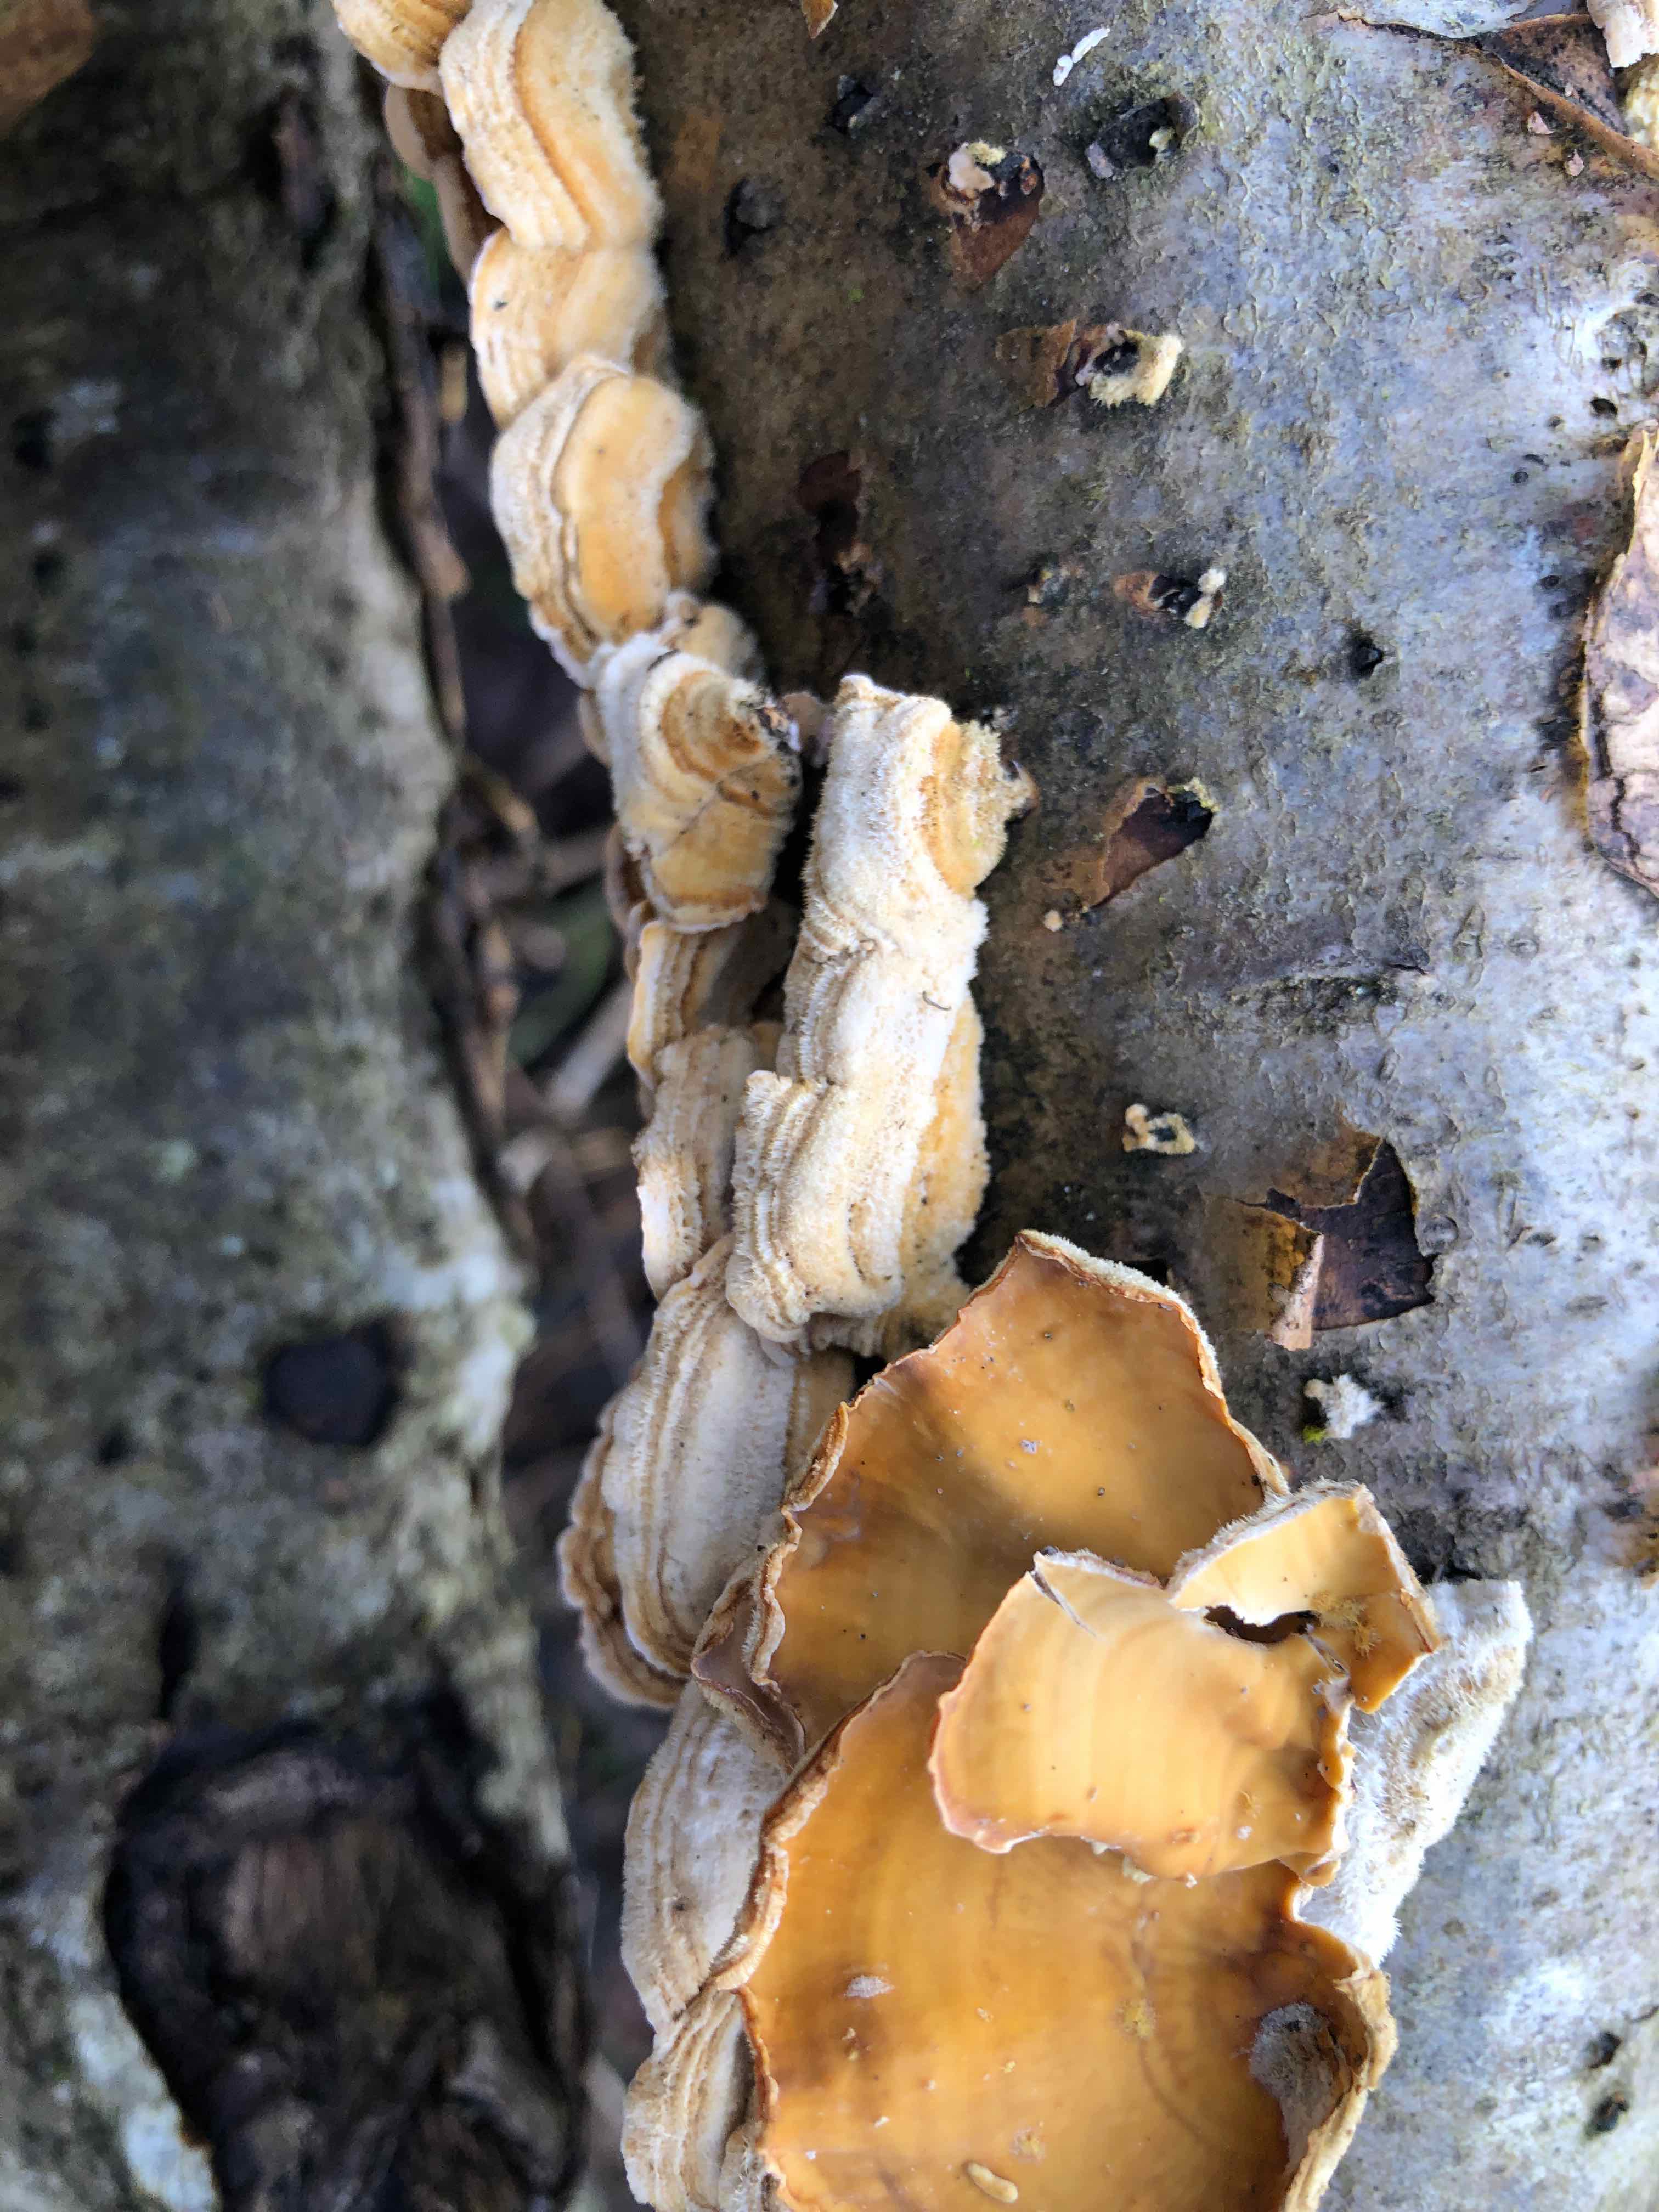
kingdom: Fungi
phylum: Basidiomycota
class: Agaricomycetes
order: Russulales
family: Stereaceae
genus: Stereum
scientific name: Stereum hirsutum
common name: håret lædersvamp
